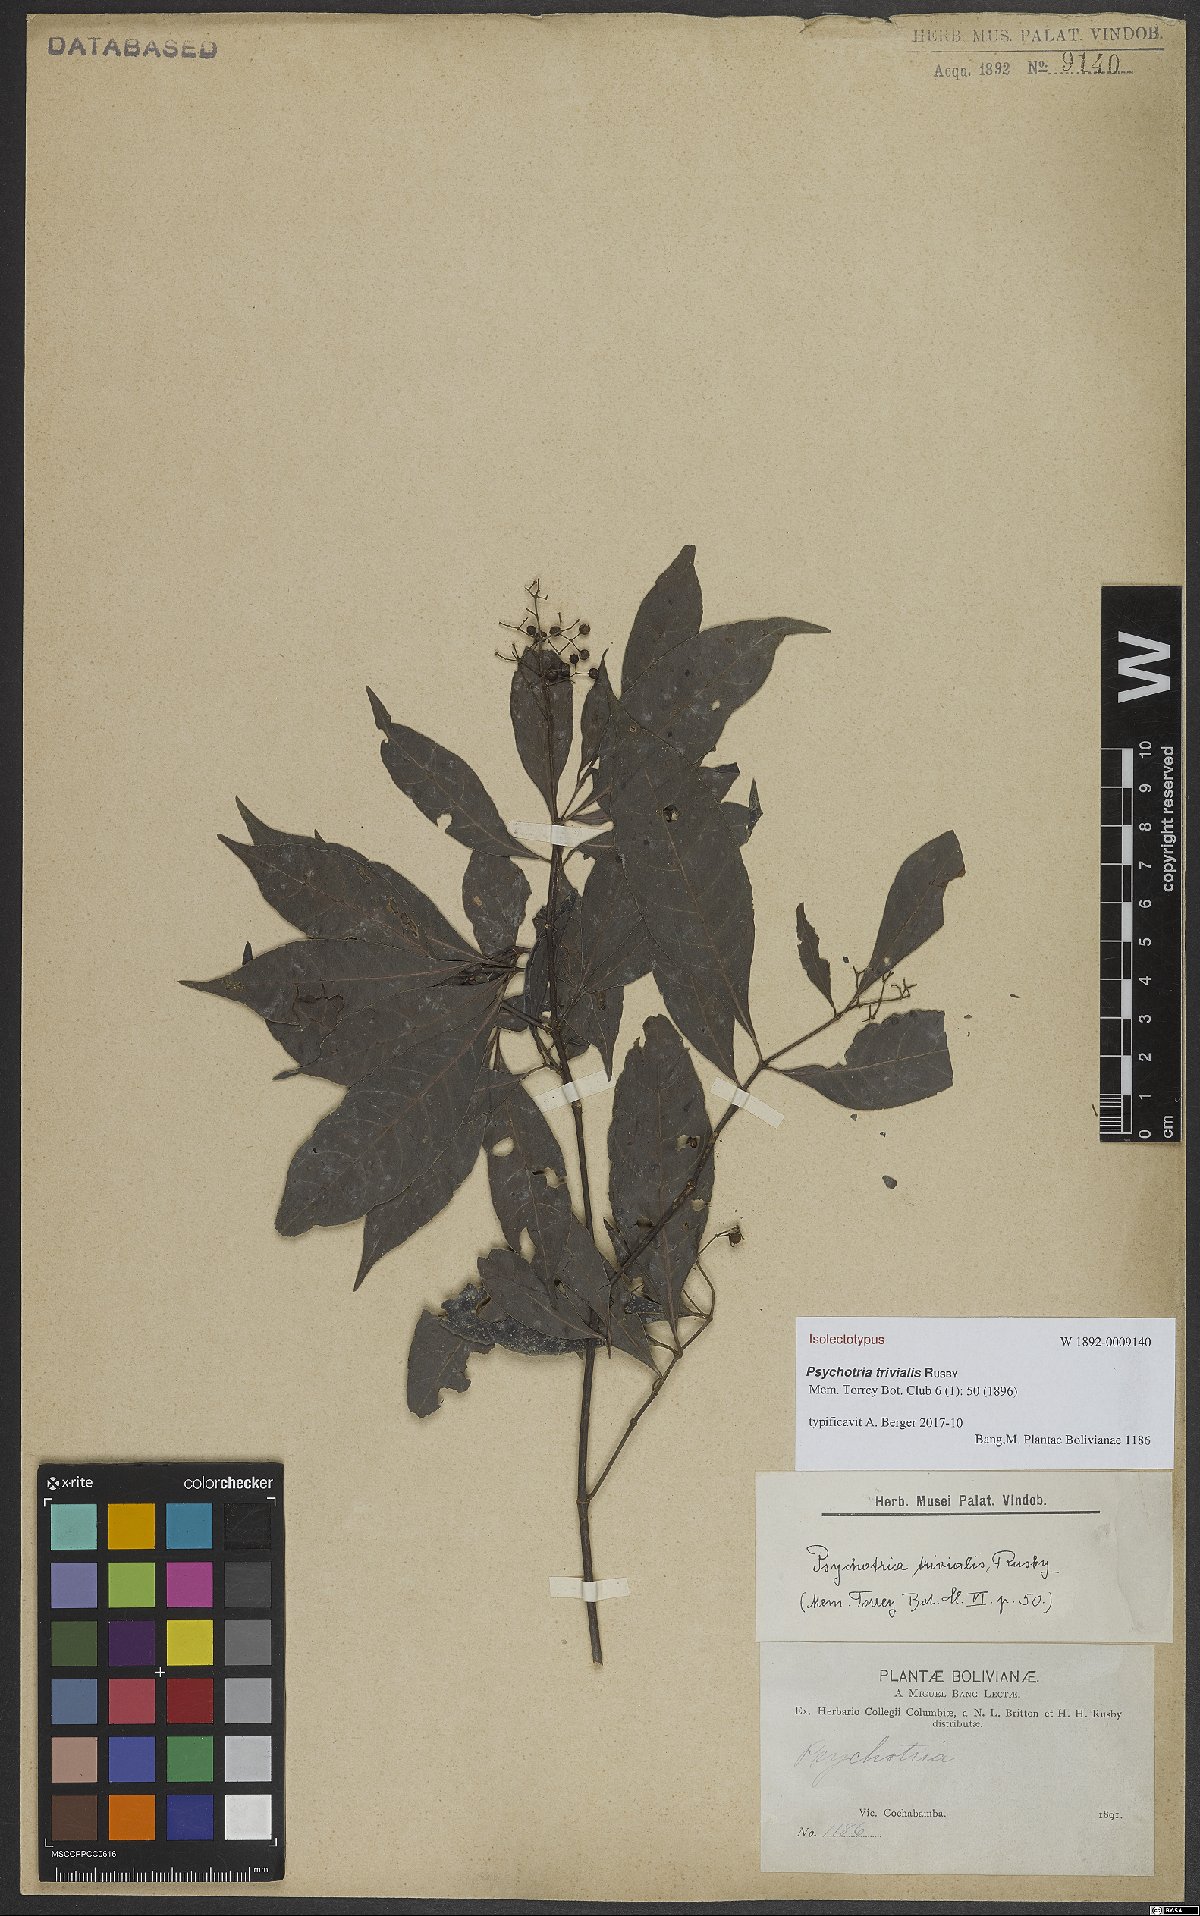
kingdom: Plantae
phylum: Tracheophyta
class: Magnoliopsida
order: Gentianales
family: Rubiaceae
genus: Psychotria
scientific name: Psychotria trivialis
